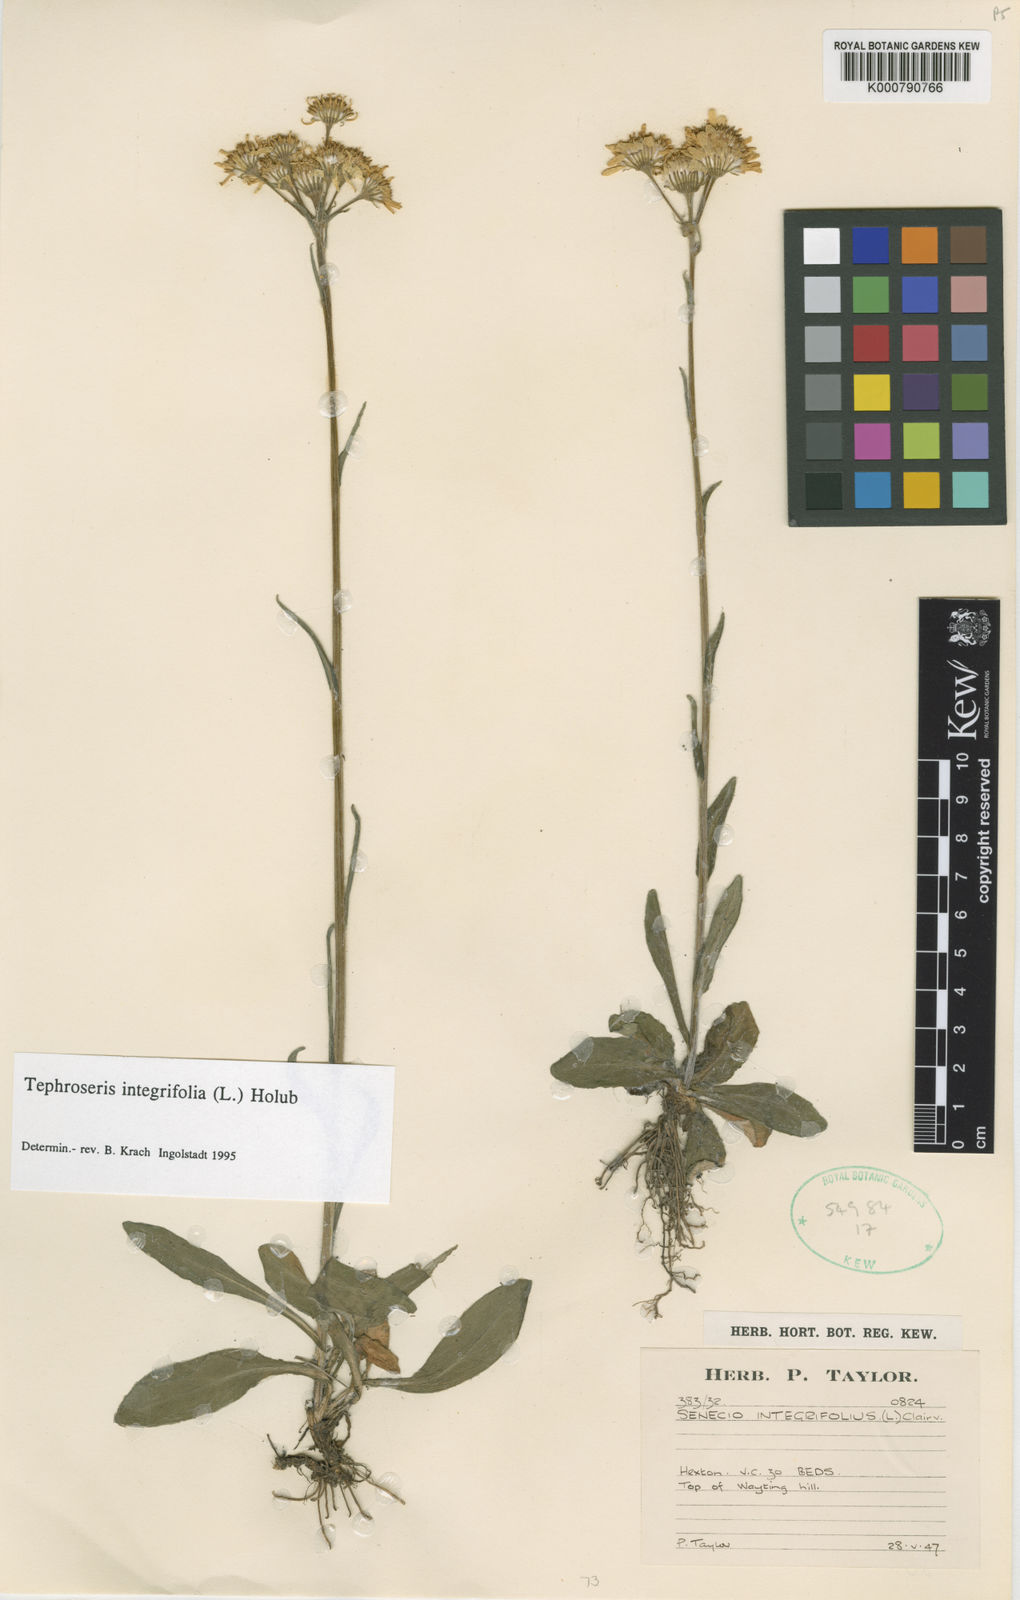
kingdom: Plantae
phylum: Tracheophyta
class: Magnoliopsida
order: Asterales
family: Asteraceae
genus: Tephroseris
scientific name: Tephroseris integrifolia
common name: Field fleawort
